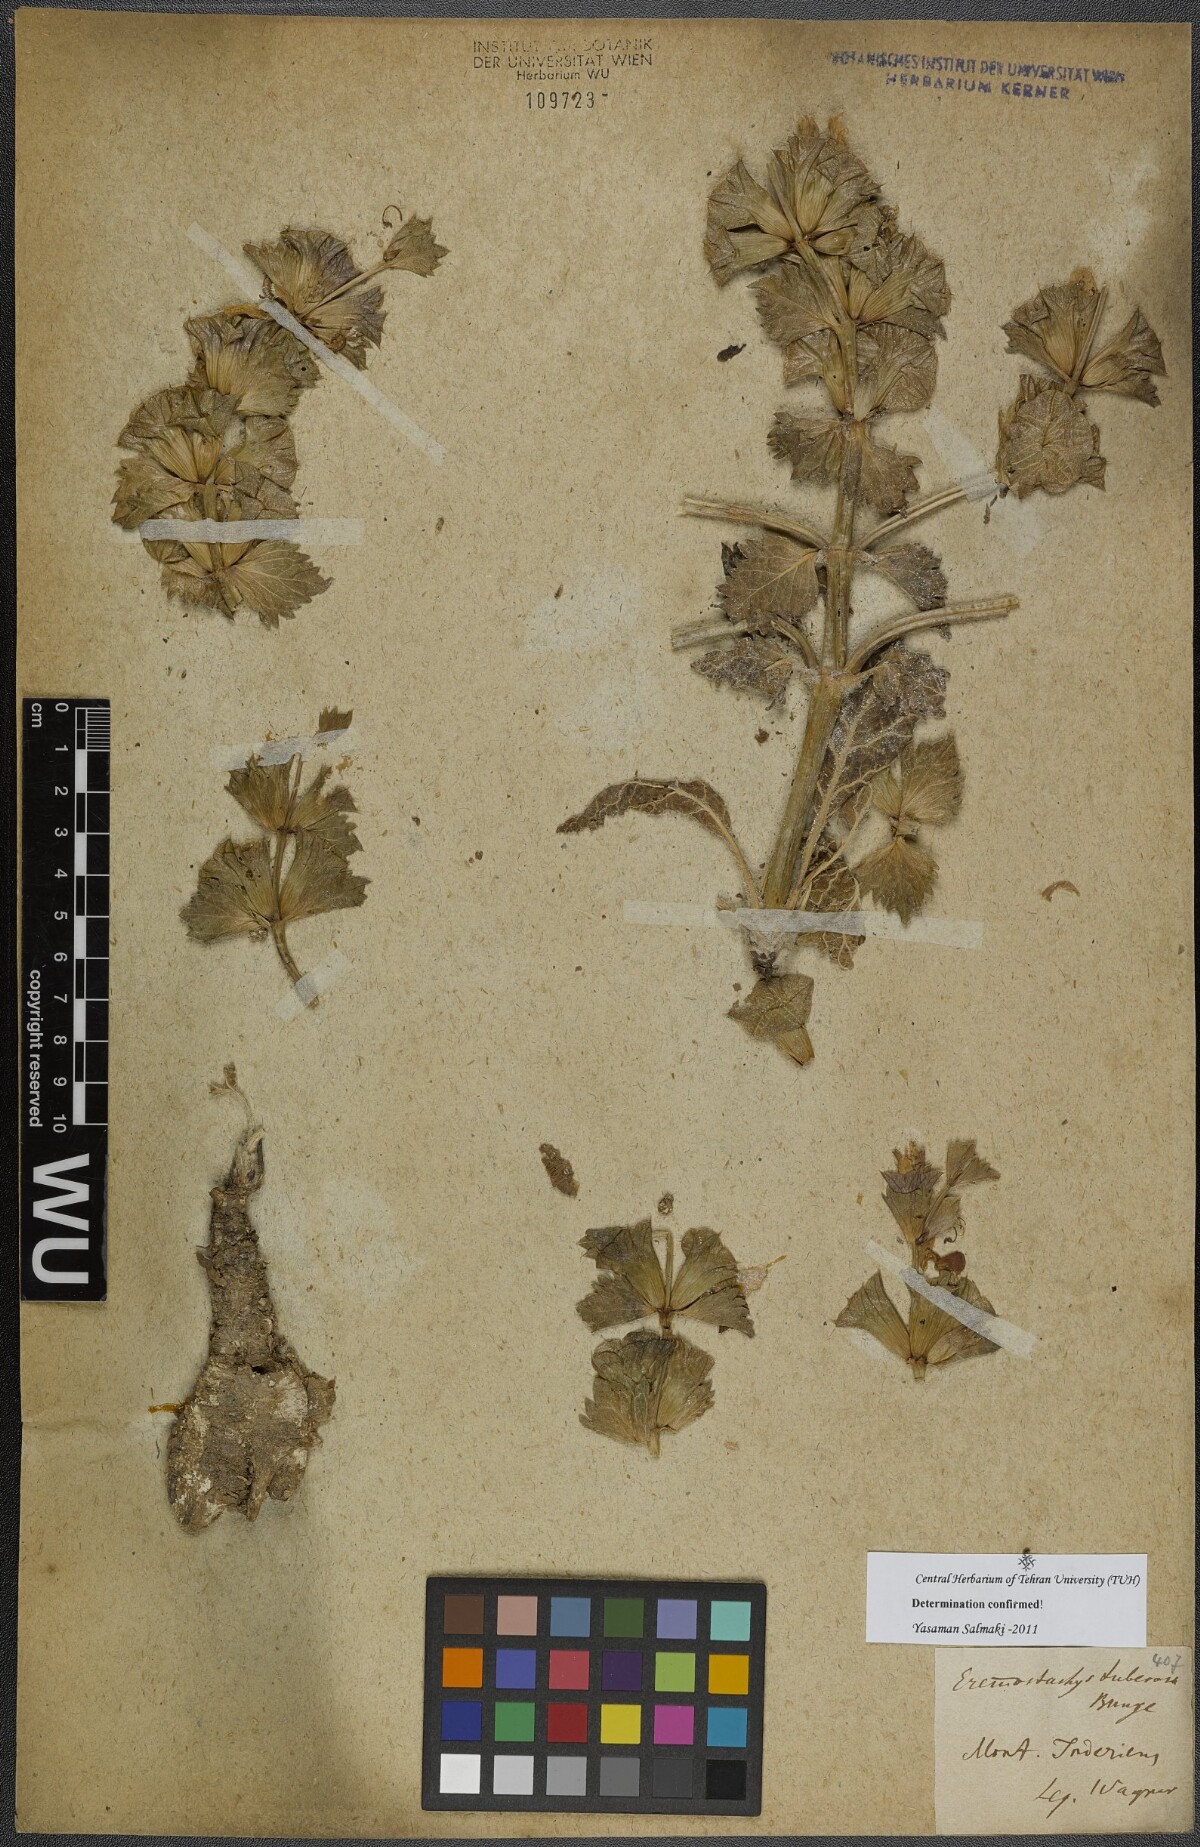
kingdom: Plantae
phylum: Tracheophyta
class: Magnoliopsida
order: Lamiales
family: Lamiaceae
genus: Phlomoides
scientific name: Phlomoides uralensis
